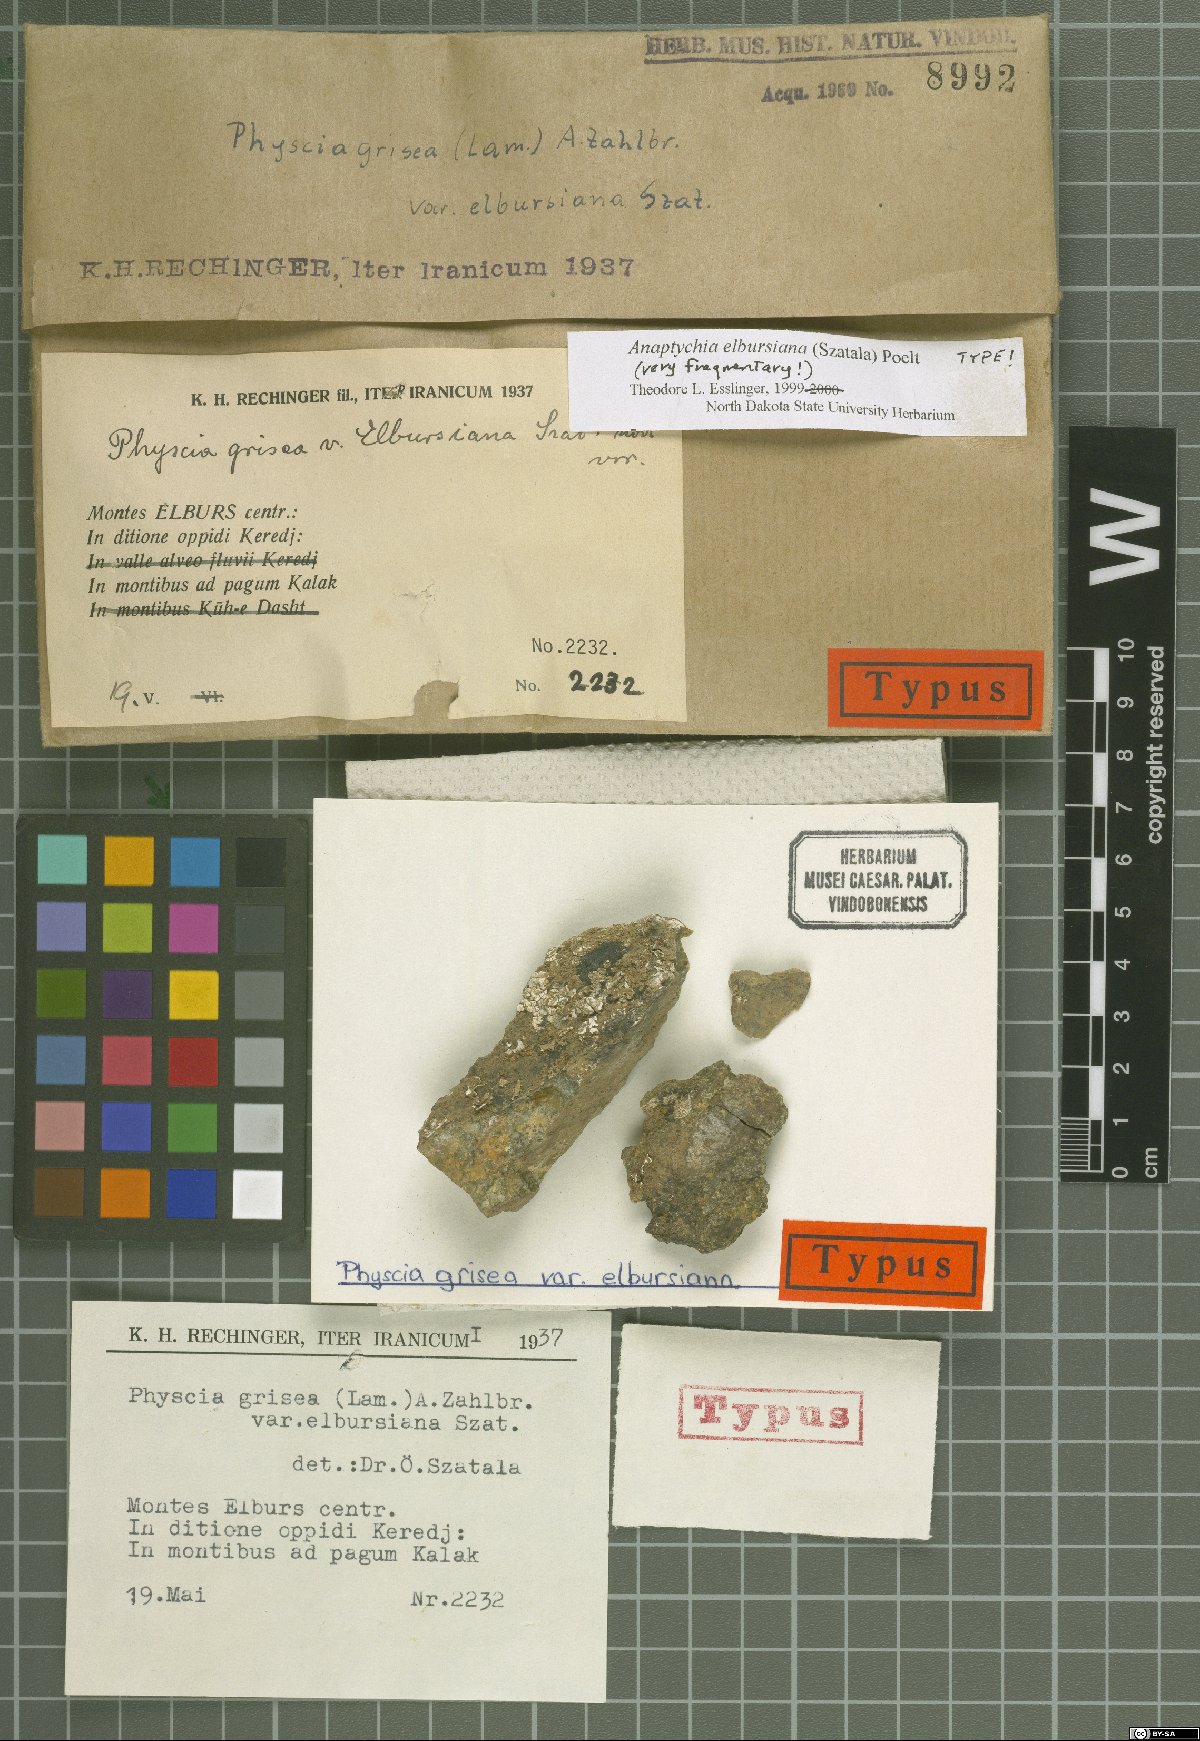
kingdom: Fungi
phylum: Ascomycota
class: Lecanoromycetes
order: Caliciales
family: Physciaceae
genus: Poeltonia
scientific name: Poeltonia grisea
